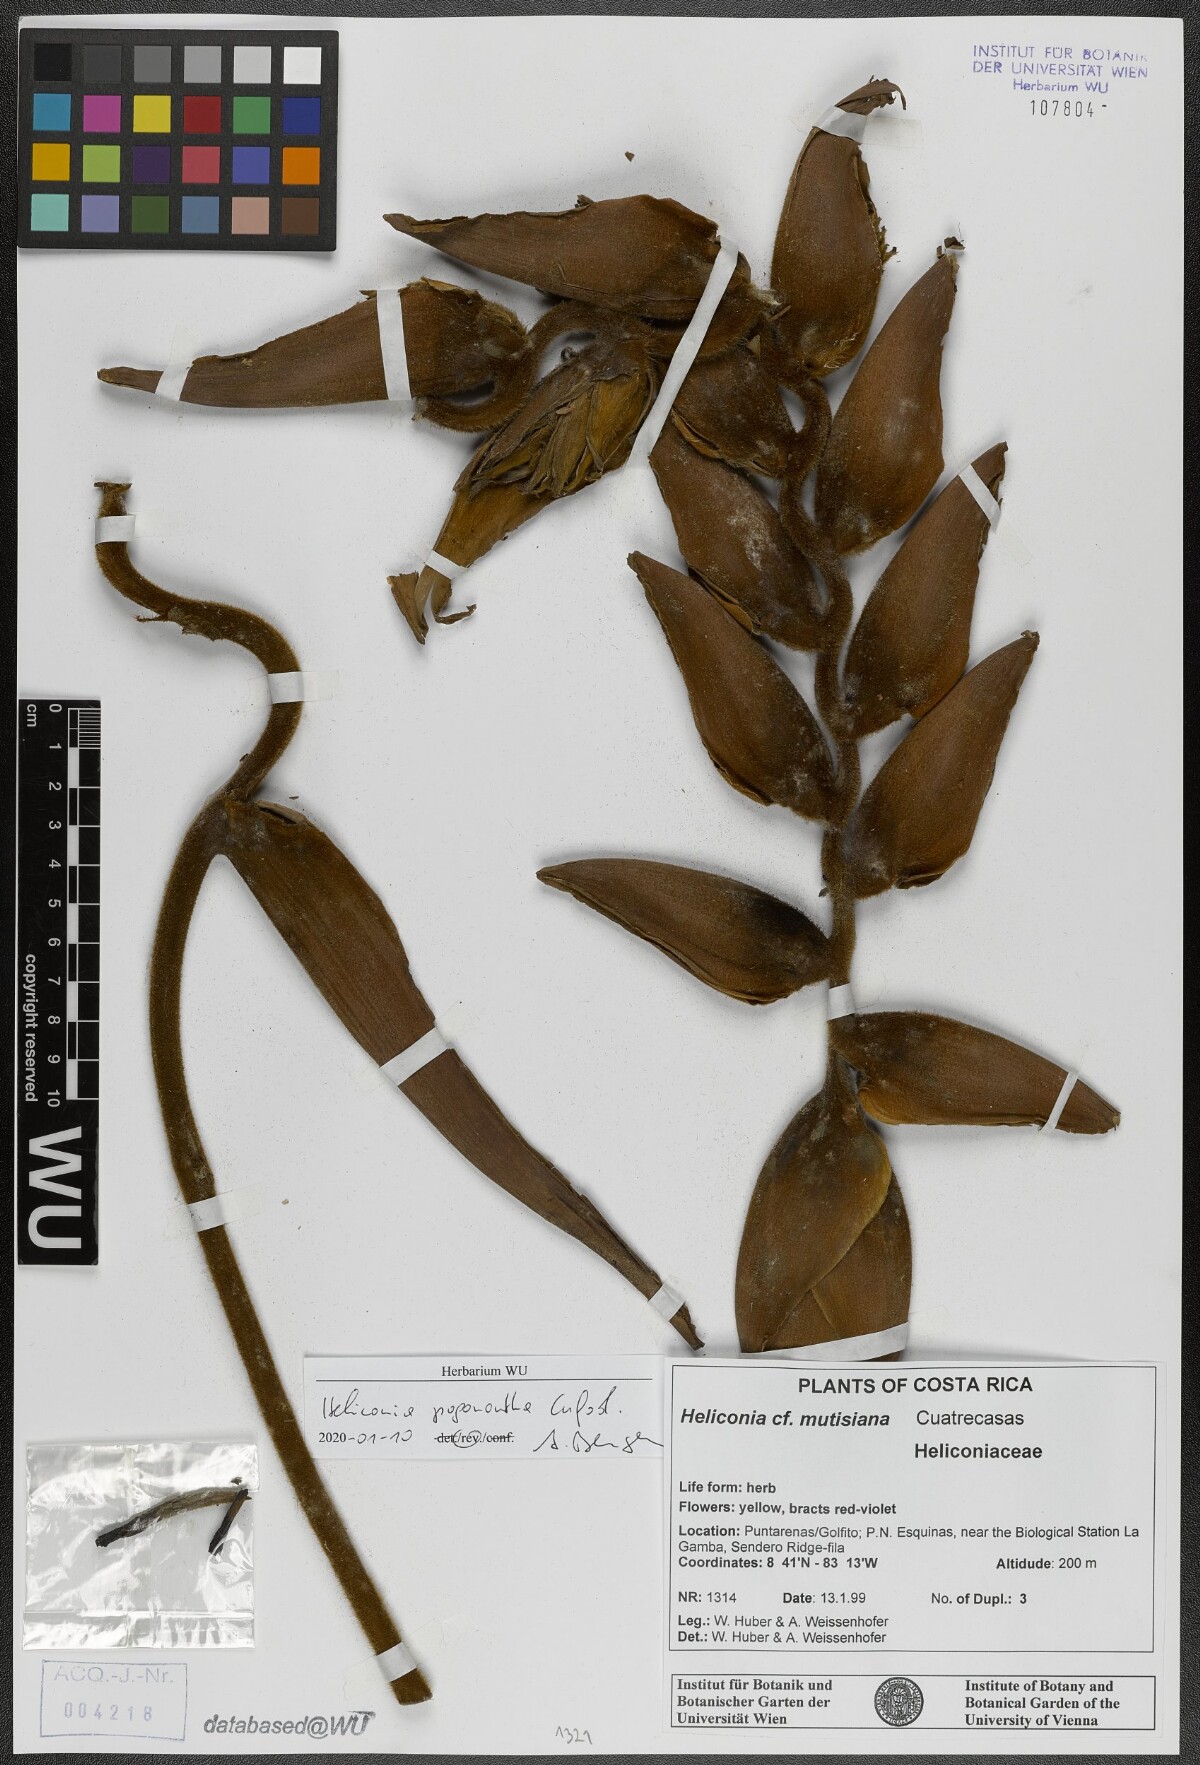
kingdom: Plantae
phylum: Tracheophyta
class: Liliopsida
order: Zingiberales
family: Heliconiaceae
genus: Heliconia
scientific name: Heliconia pogonantha
